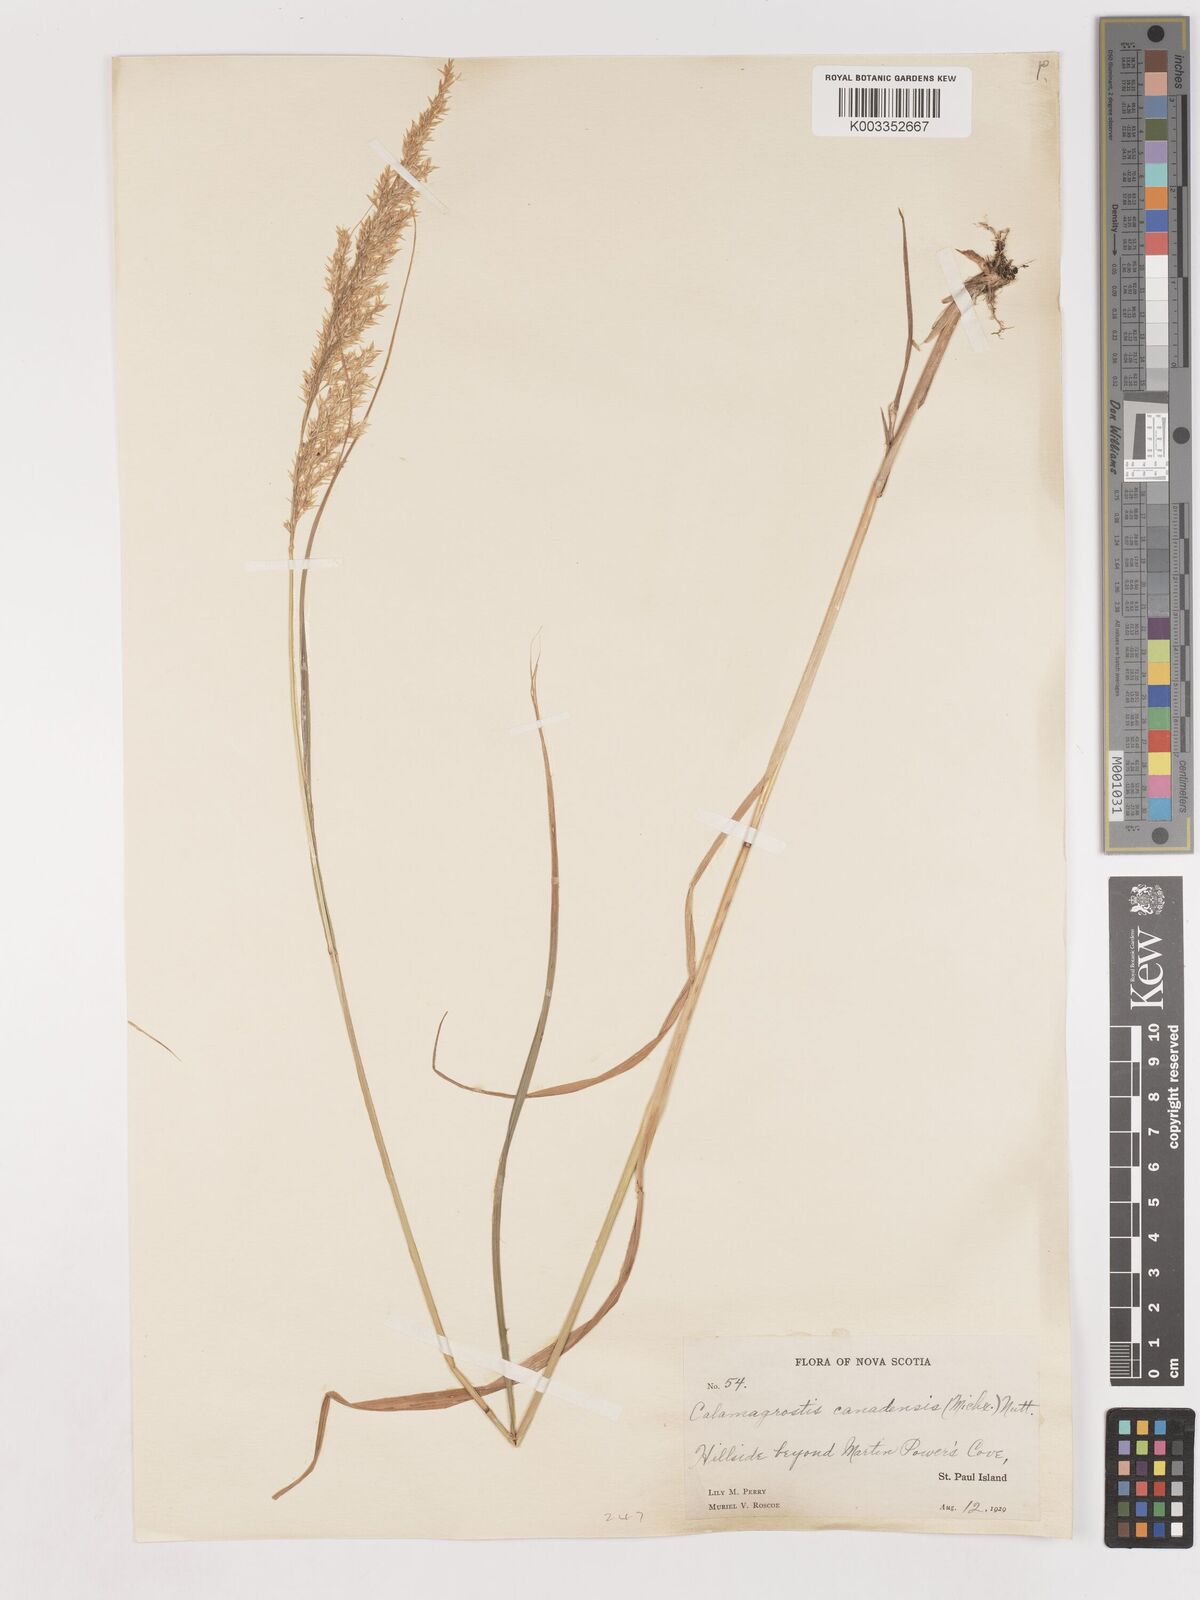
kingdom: Plantae
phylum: Tracheophyta
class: Liliopsida
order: Poales
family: Poaceae
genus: Calamagrostis
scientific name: Calamagrostis canadensis
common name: Canada bluejoint
